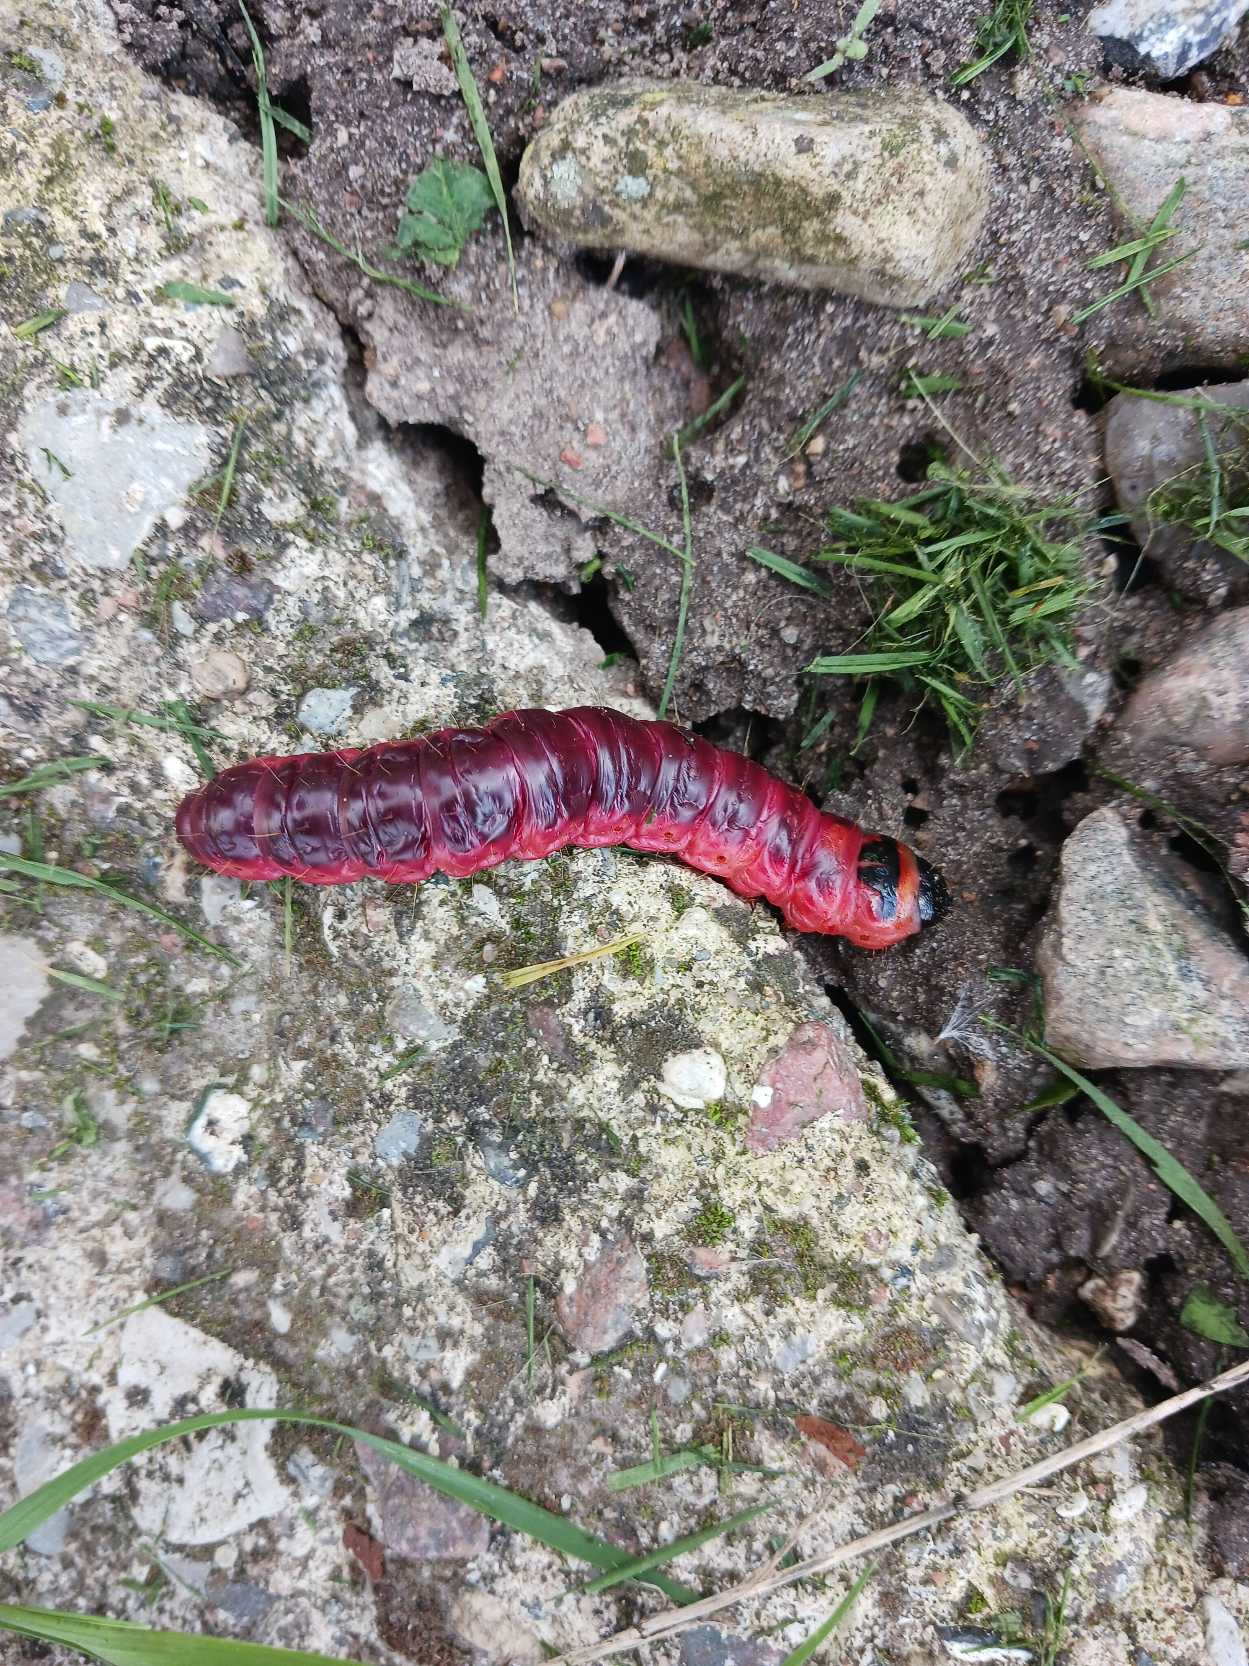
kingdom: Animalia
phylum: Arthropoda
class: Insecta
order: Lepidoptera
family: Cossidae
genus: Cossus
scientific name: Cossus cossus
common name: Pileborer
